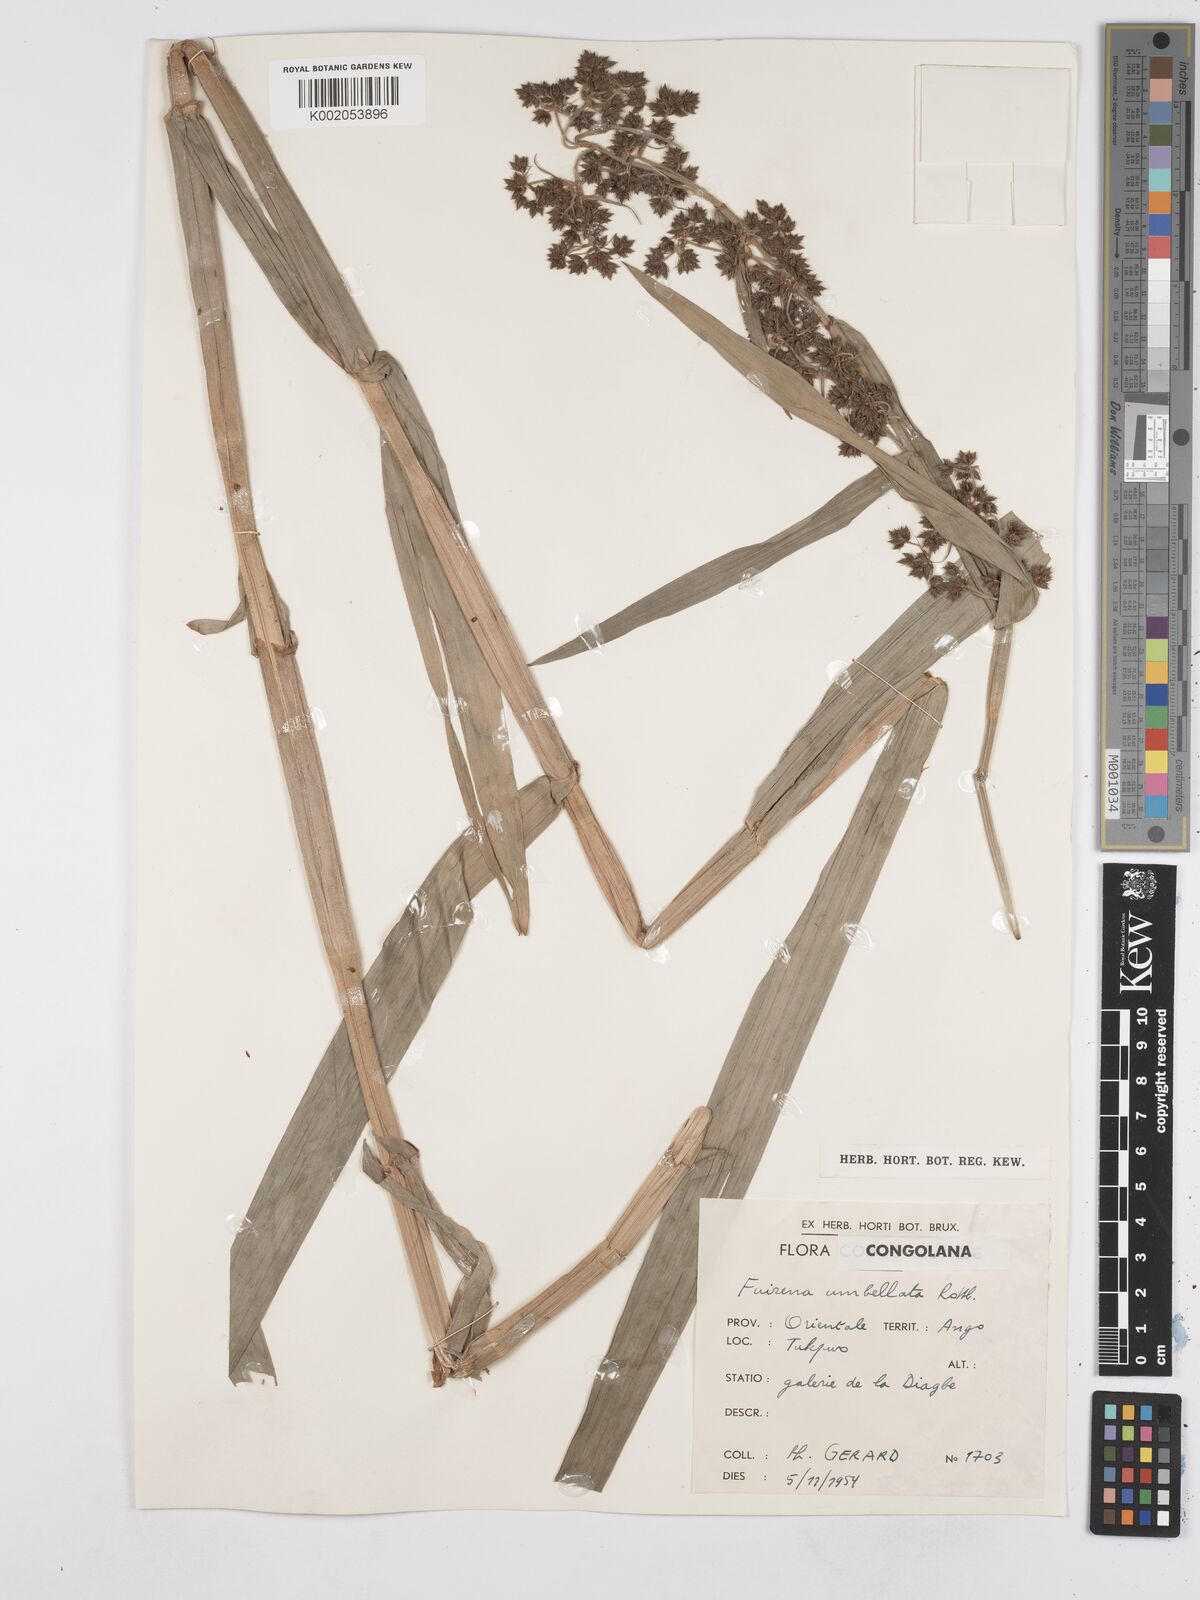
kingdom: Plantae
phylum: Tracheophyta
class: Liliopsida
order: Poales
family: Cyperaceae
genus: Fuirena
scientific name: Fuirena umbellata
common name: Yefen
